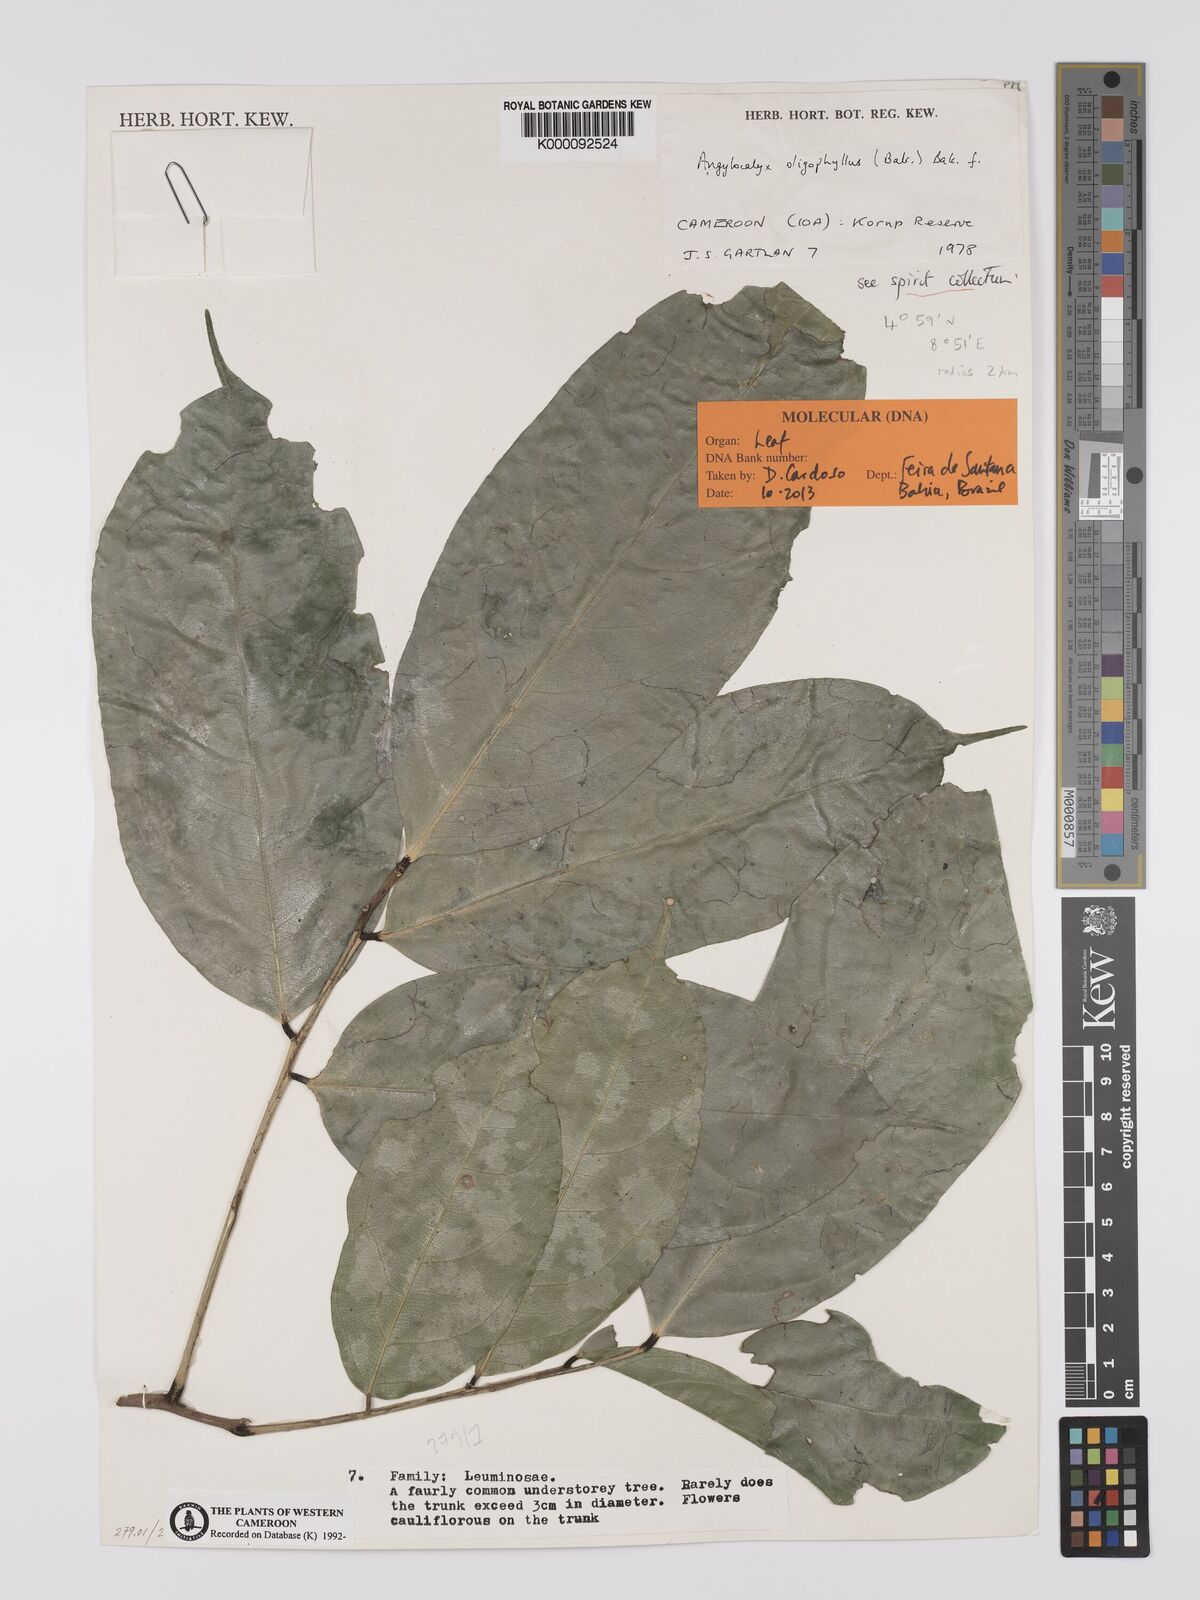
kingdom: Plantae
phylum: Tracheophyta
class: Magnoliopsida
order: Fabales
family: Fabaceae
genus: Angylocalyx
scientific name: Angylocalyx oligophyllus
